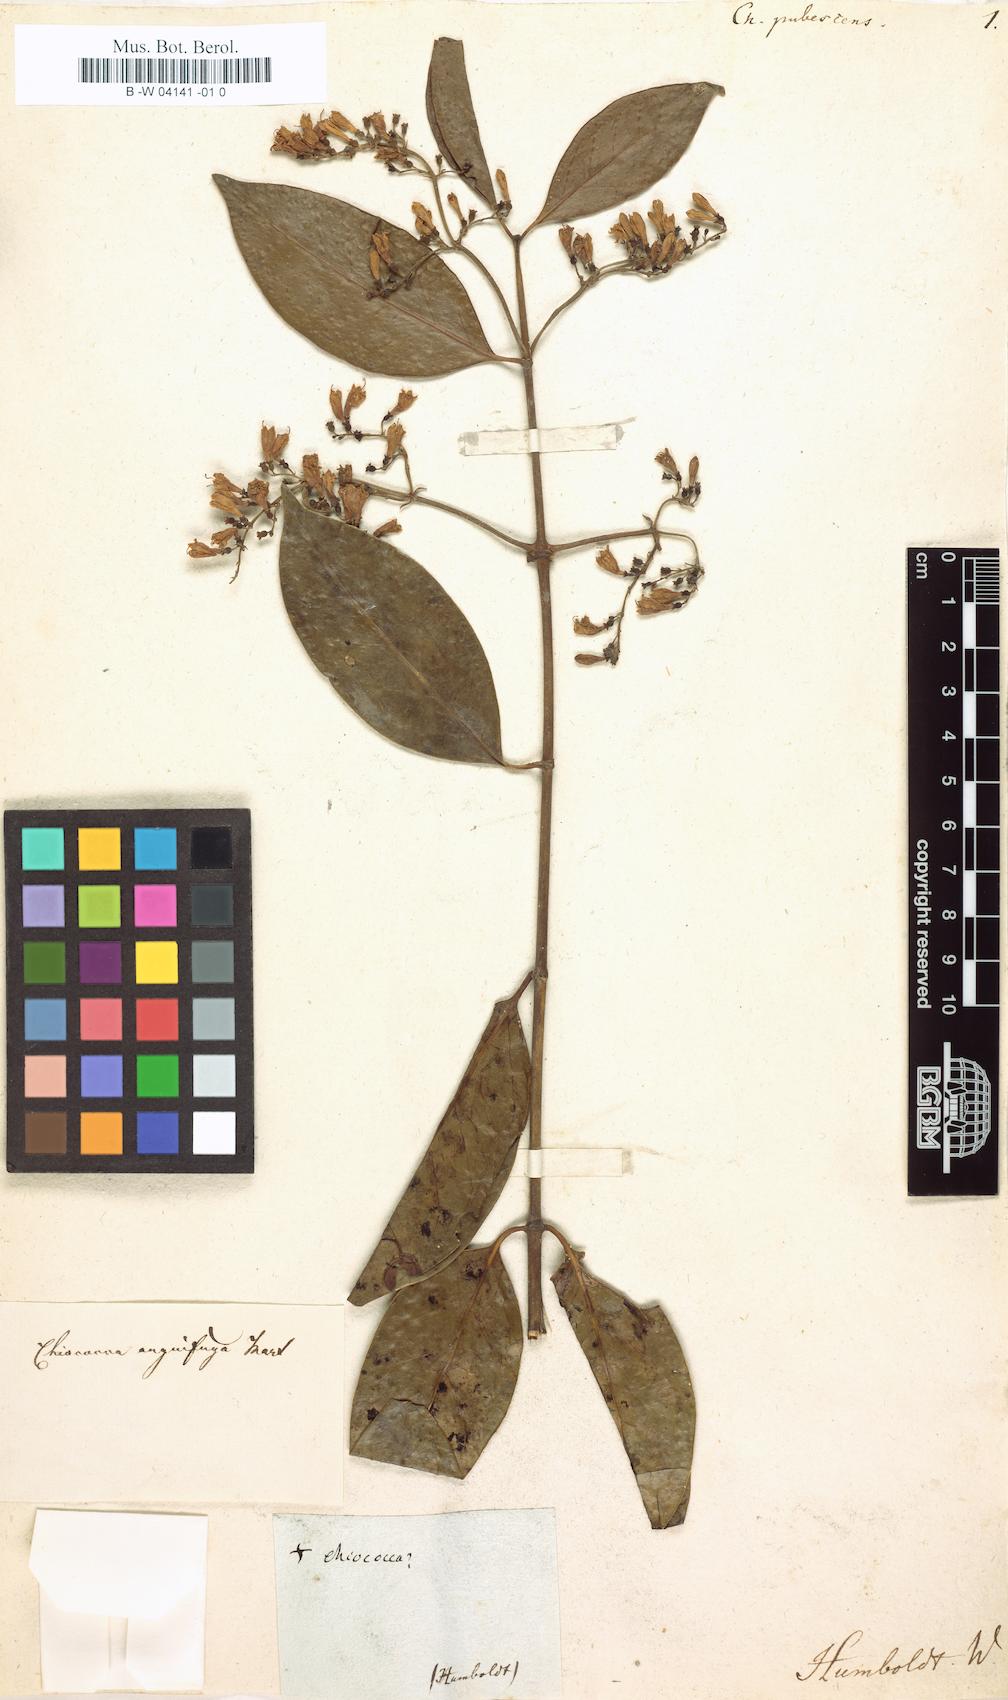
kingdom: Plantae
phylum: Tracheophyta
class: Magnoliopsida
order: Gentianales
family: Rubiaceae
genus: Chiococca
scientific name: Chiococca alba
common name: Snowberry
